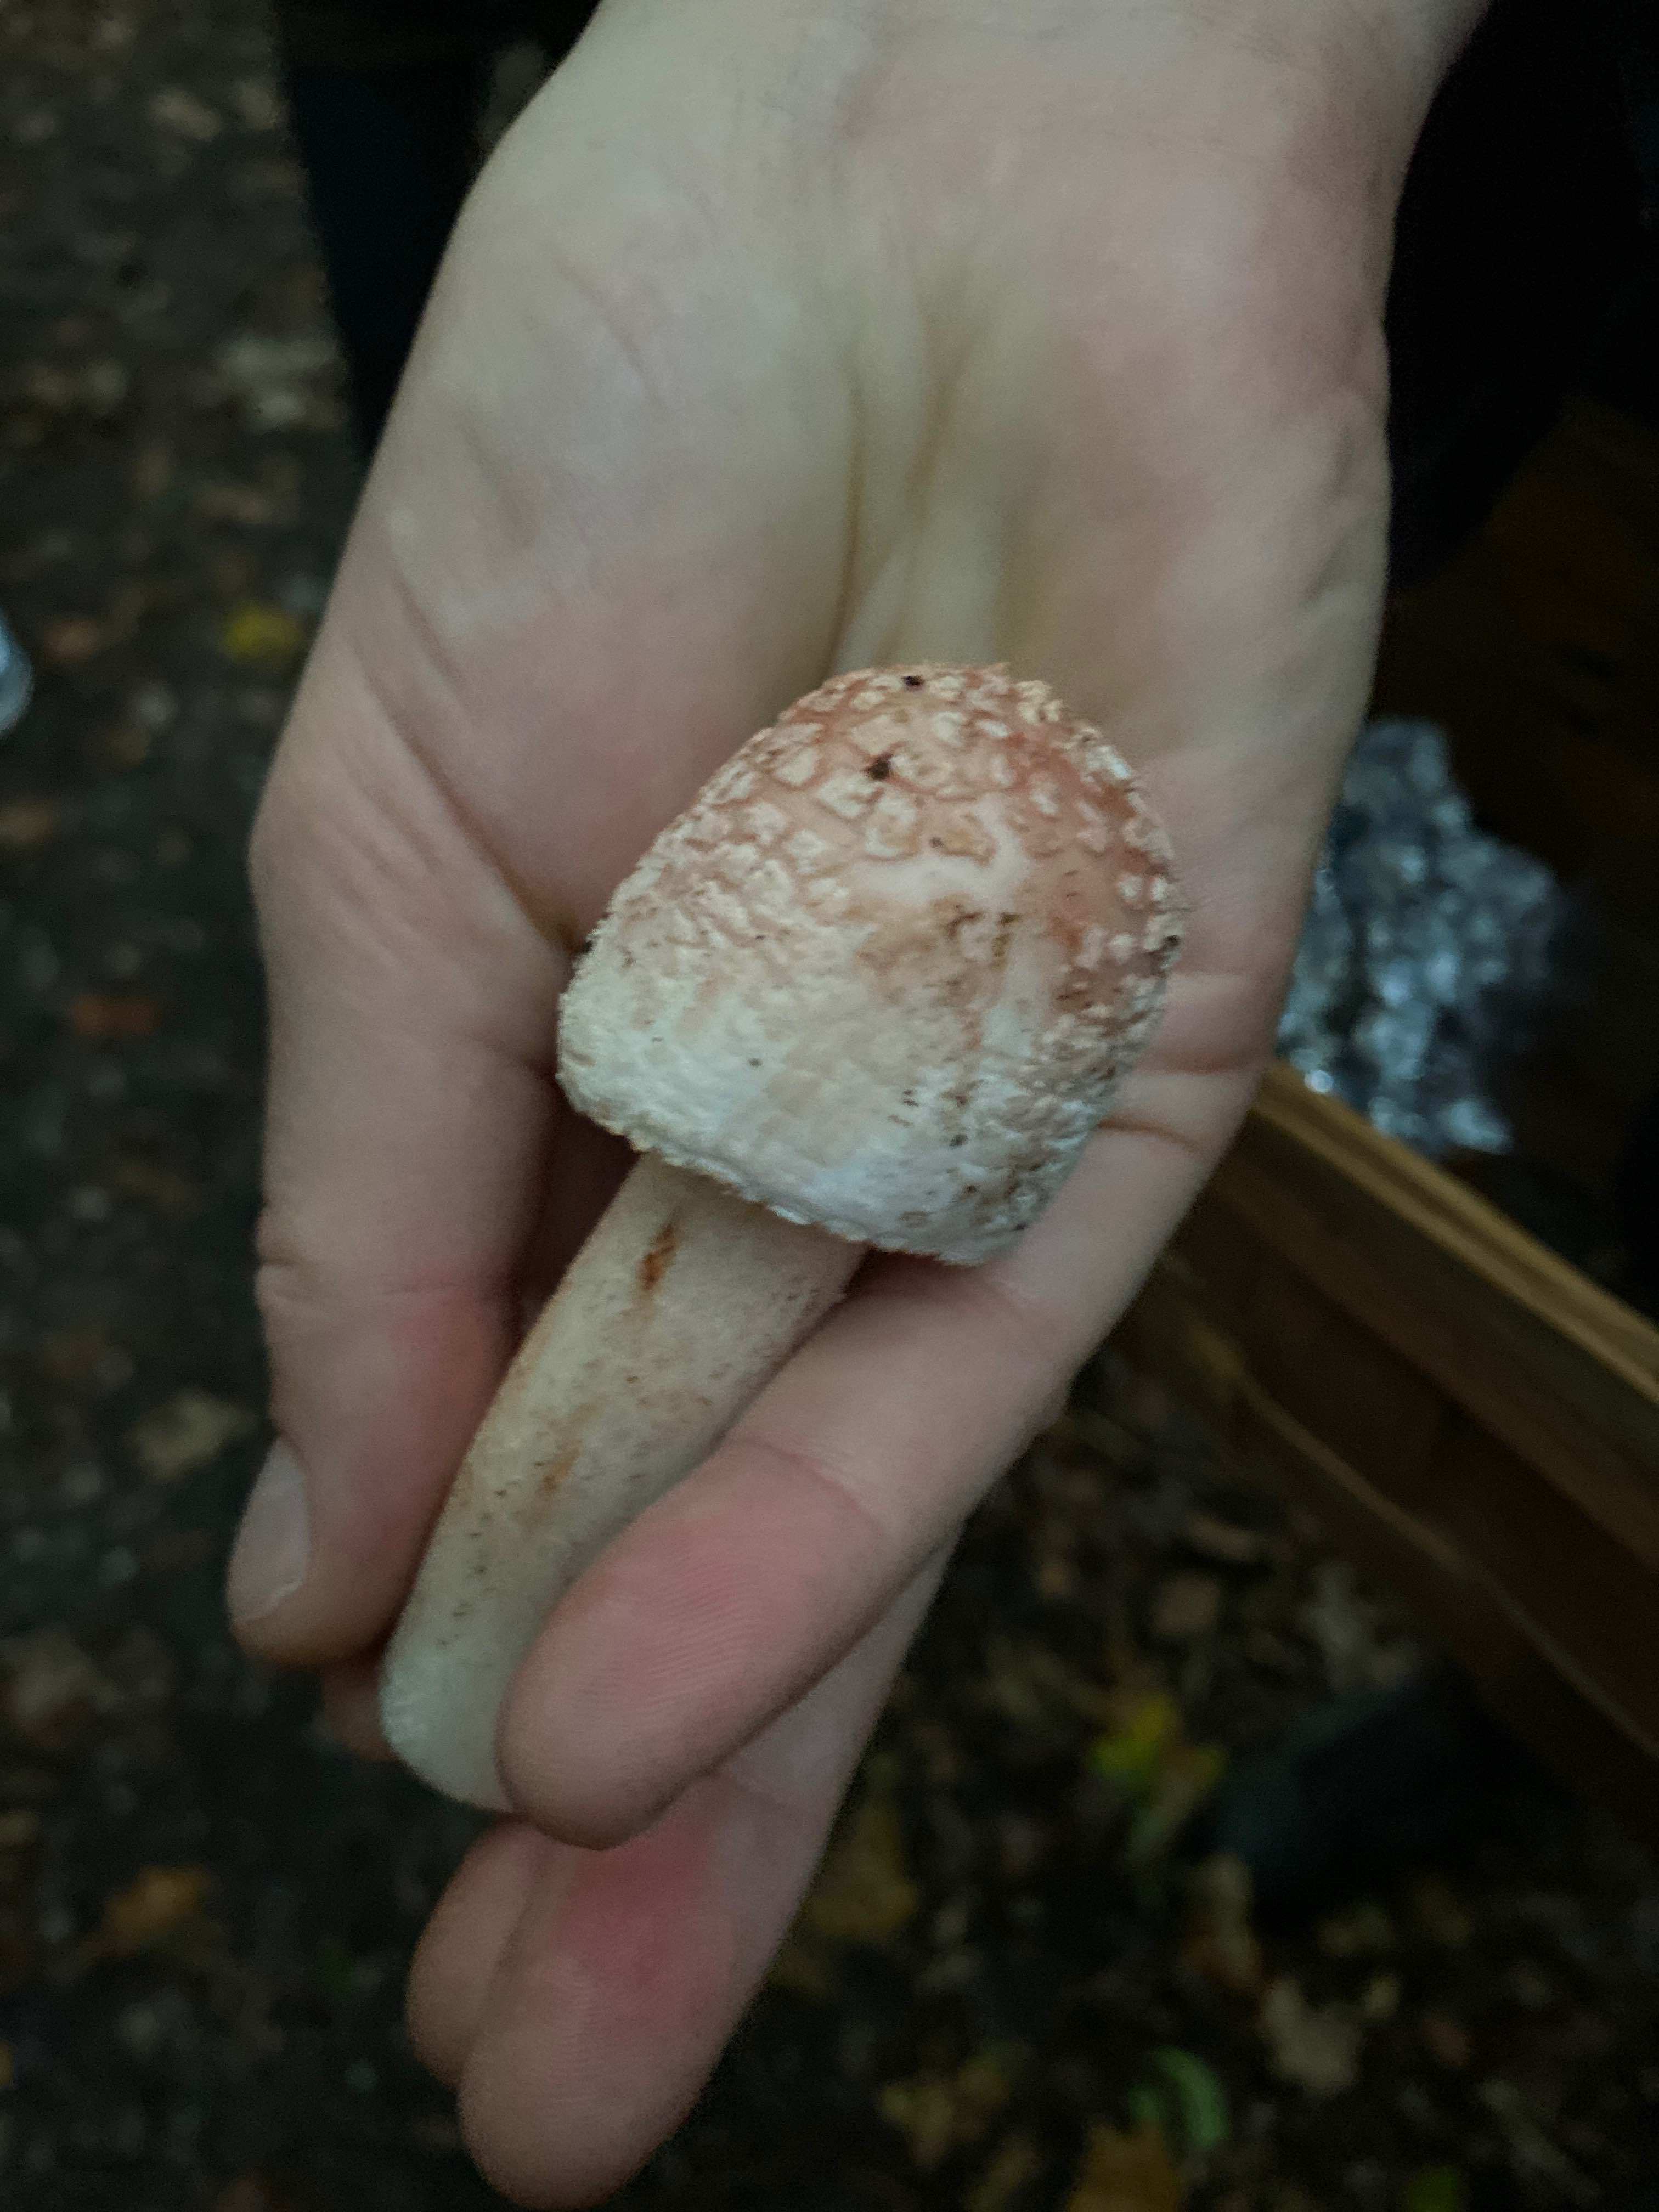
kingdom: Fungi
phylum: Basidiomycota
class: Agaricomycetes
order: Agaricales
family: Amanitaceae
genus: Amanita
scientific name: Amanita rubescens
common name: rødmende fluesvamp
